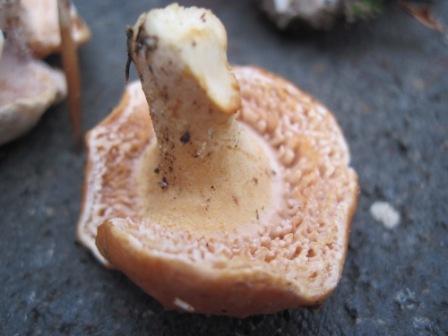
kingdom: Fungi
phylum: Basidiomycota
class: Agaricomycetes
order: Cantharellales
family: Hydnaceae
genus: Hydnum
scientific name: Hydnum rufescens
